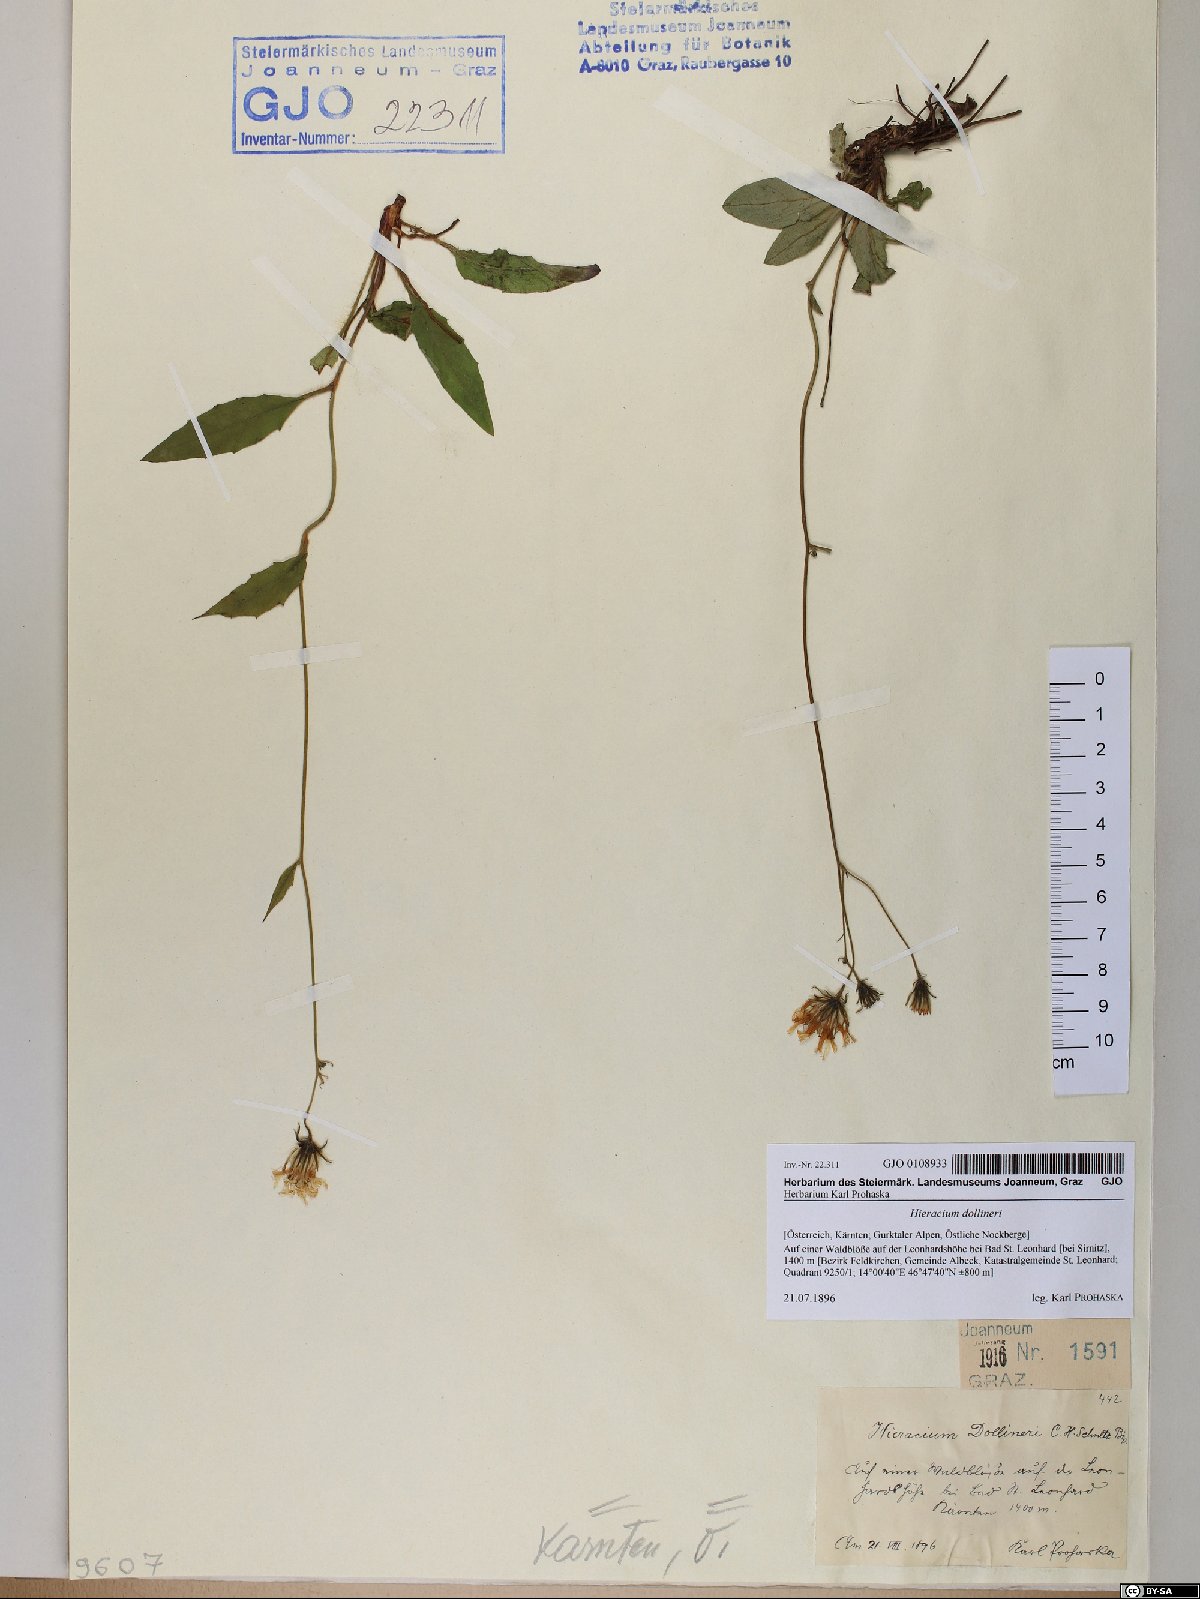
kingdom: Plantae
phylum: Tracheophyta
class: Magnoliopsida
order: Asterales
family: Asteraceae
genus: Hieracium
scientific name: Hieracium dollineri
